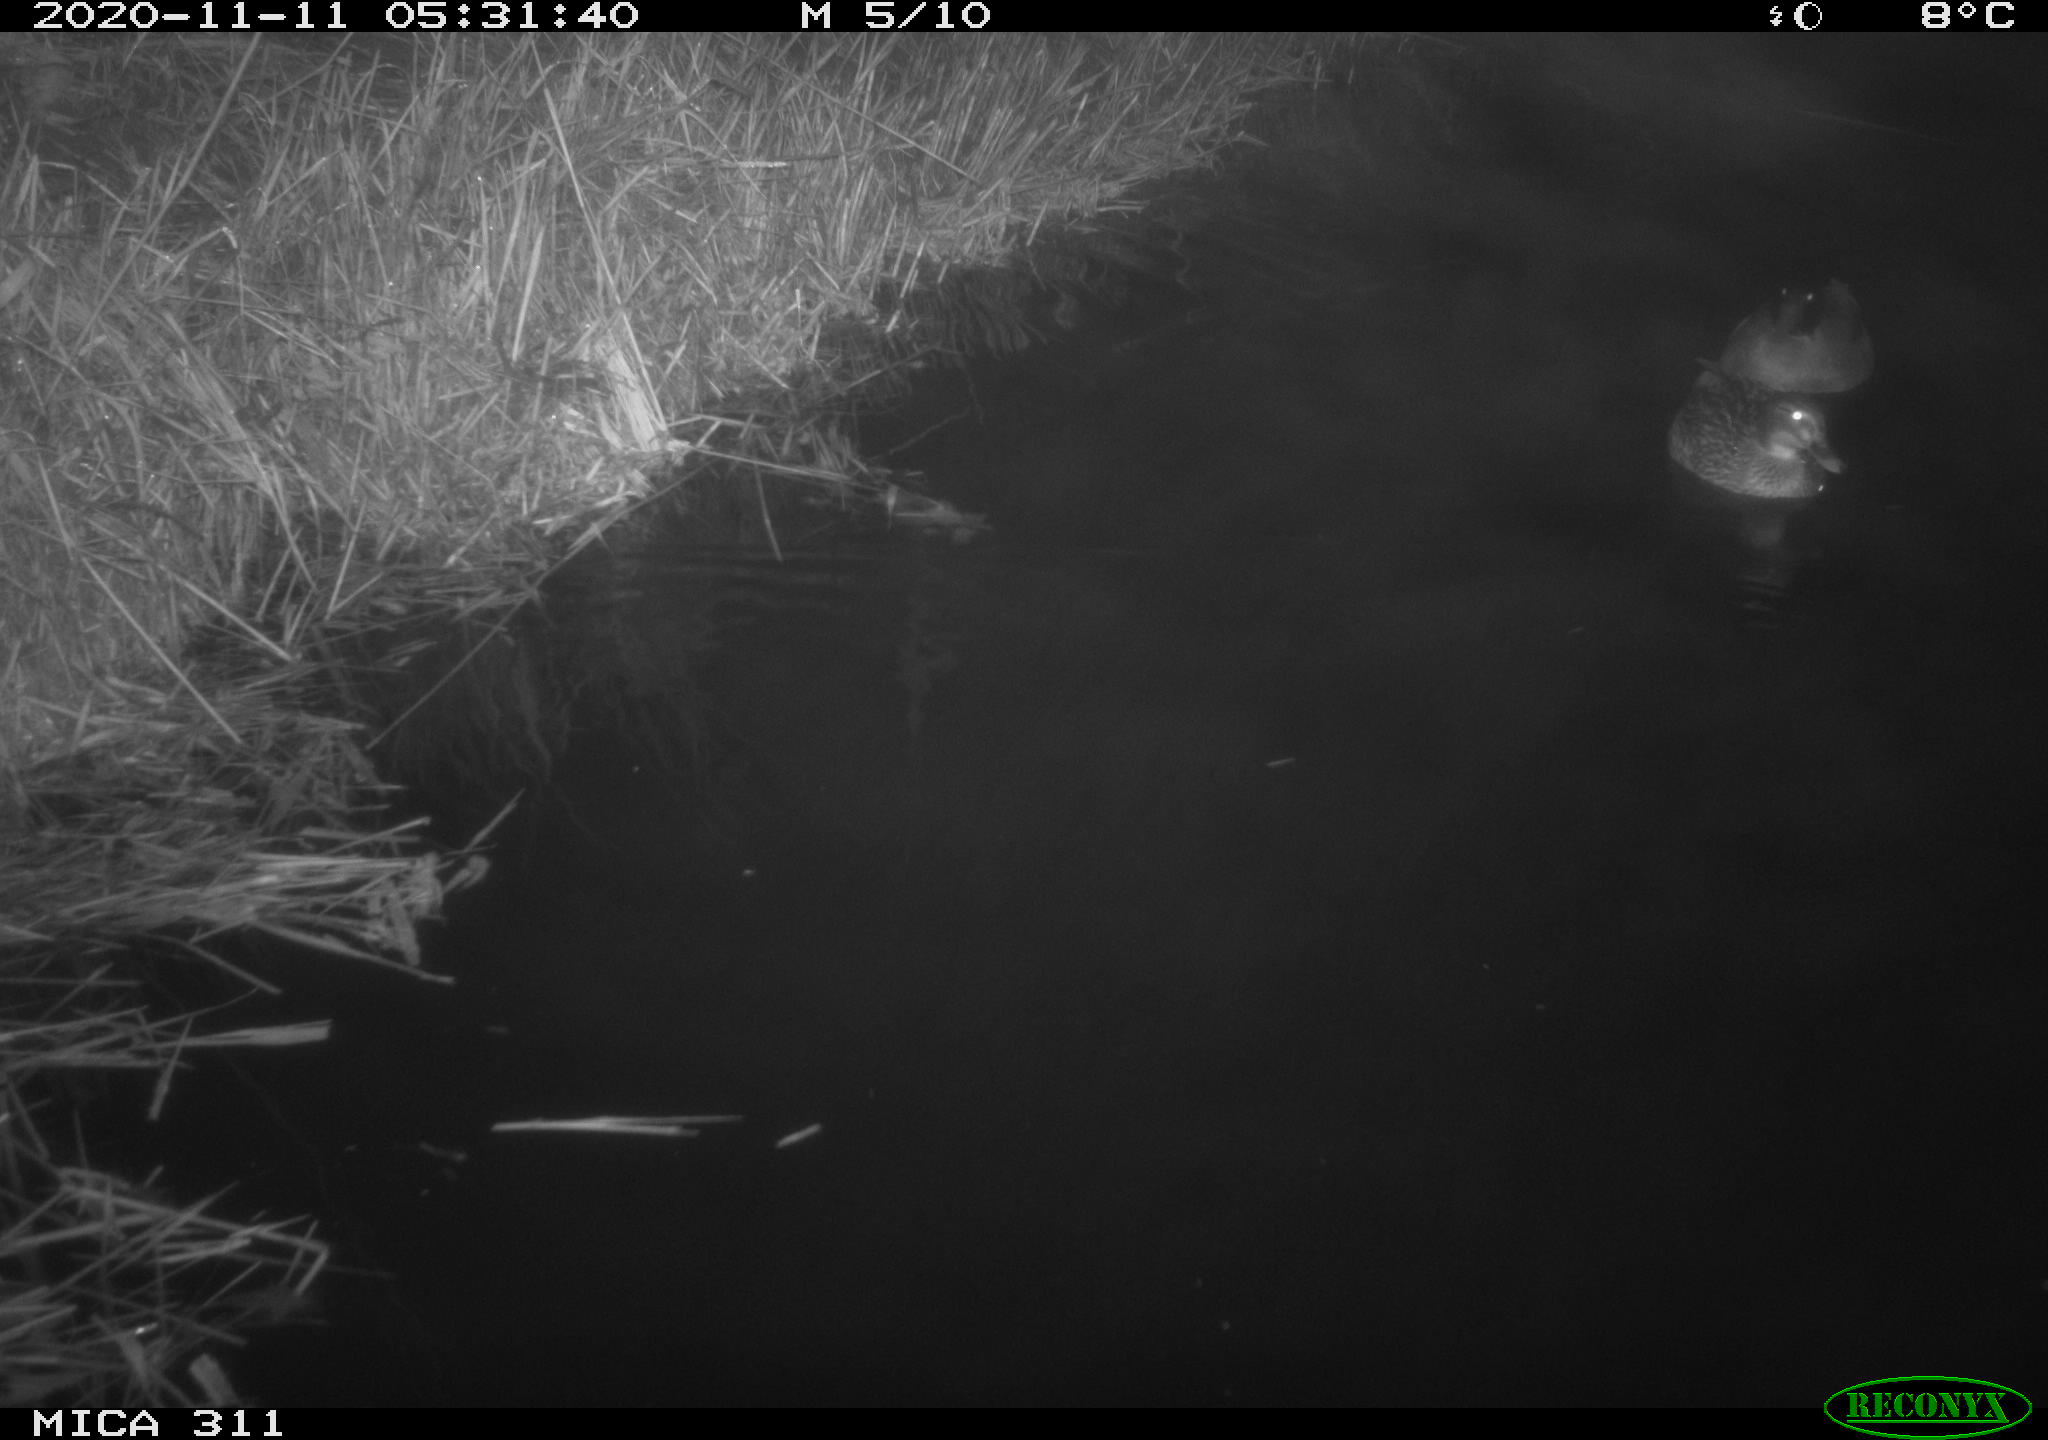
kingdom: Animalia
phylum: Chordata
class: Mammalia
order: Rodentia
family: Muridae
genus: Rattus
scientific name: Rattus norvegicus
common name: Brown rat
